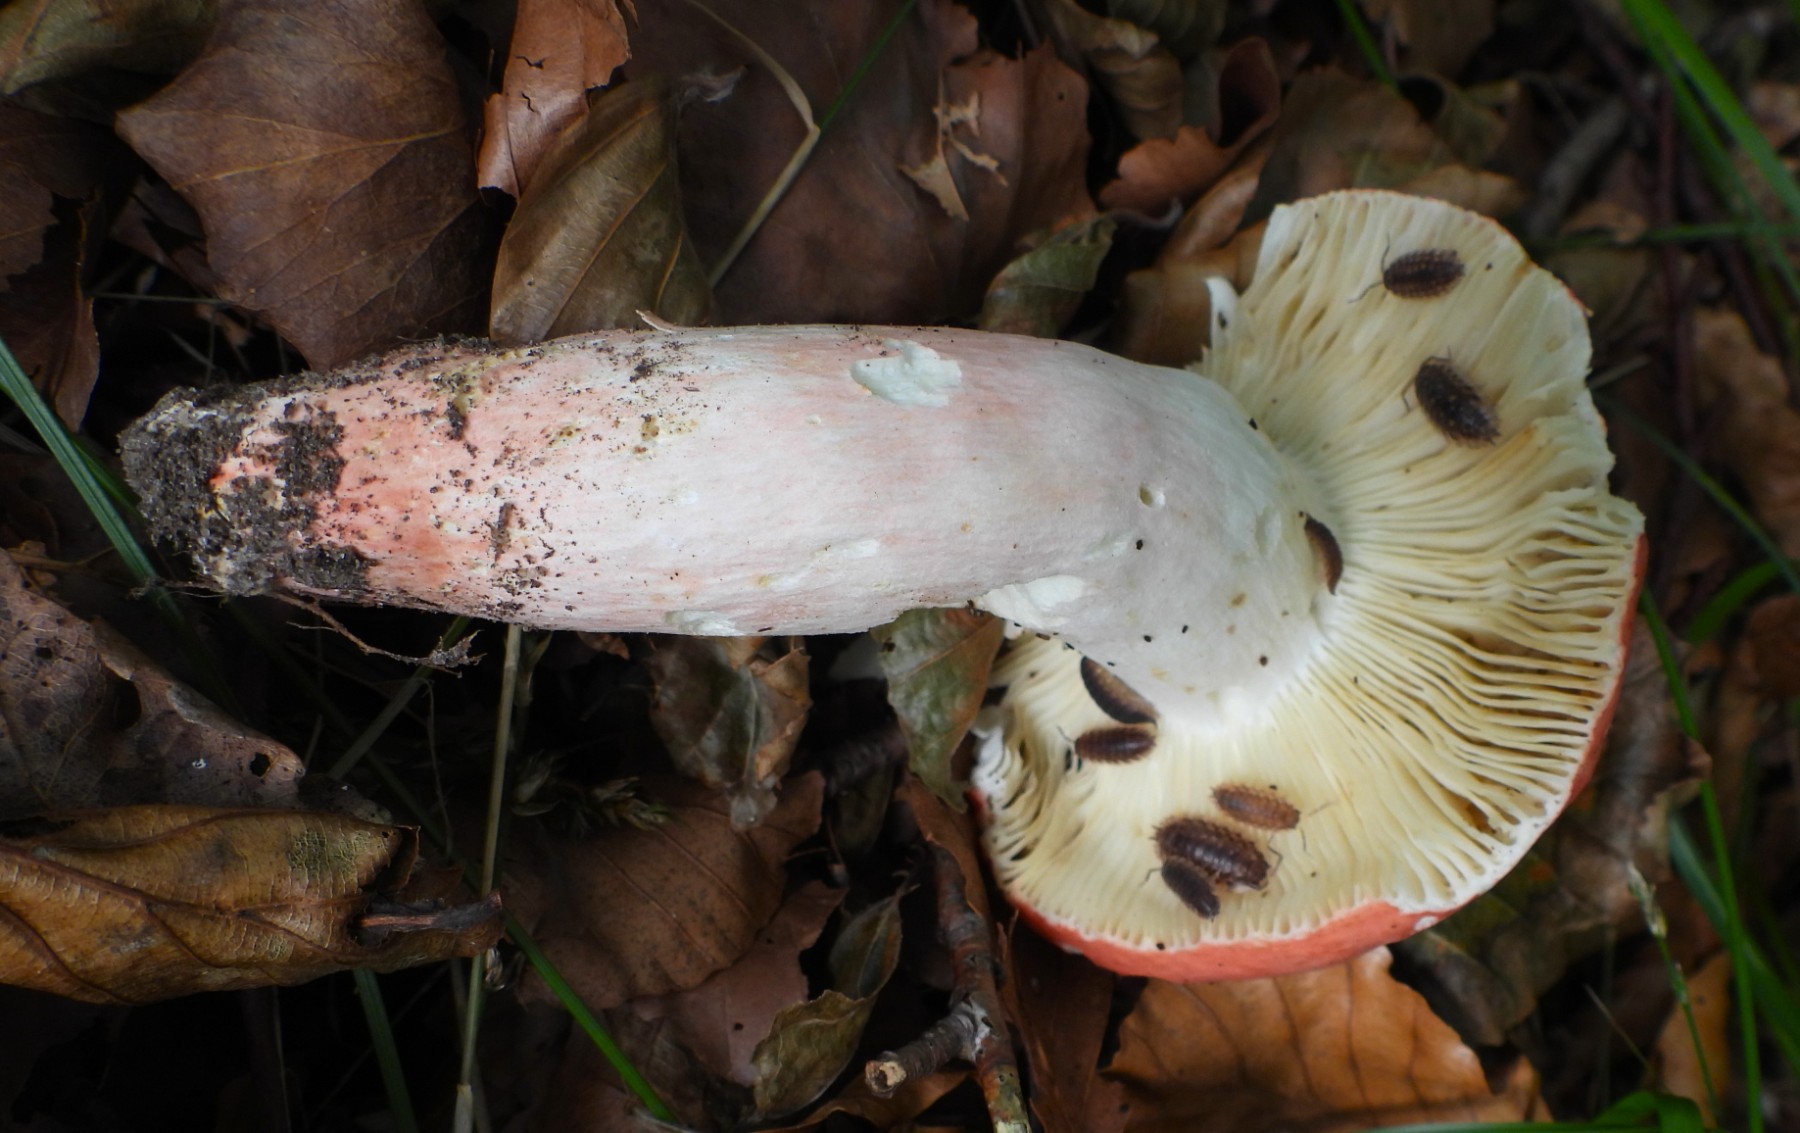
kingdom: Fungi
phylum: Basidiomycota
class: Agaricomycetes
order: Russulales
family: Russulaceae
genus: Russula
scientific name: Russula rosea
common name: fastkødet skørhat
